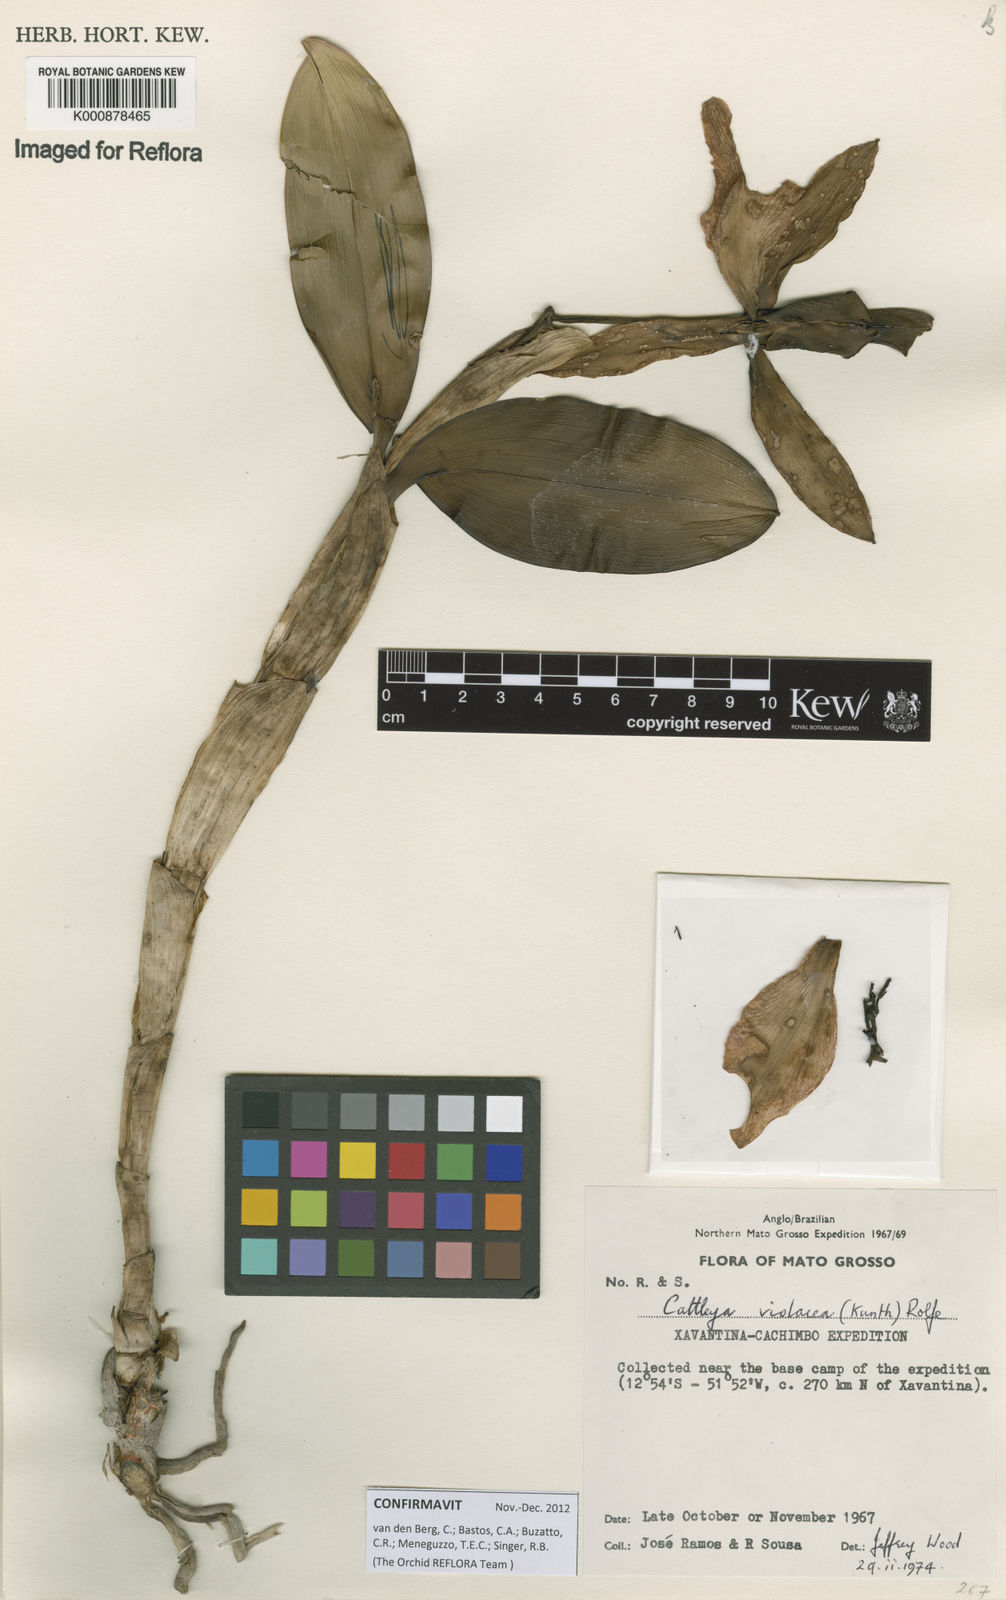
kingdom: Plantae
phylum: Tracheophyta
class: Liliopsida
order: Asparagales
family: Orchidaceae
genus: Cattleya
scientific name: Cattleya
